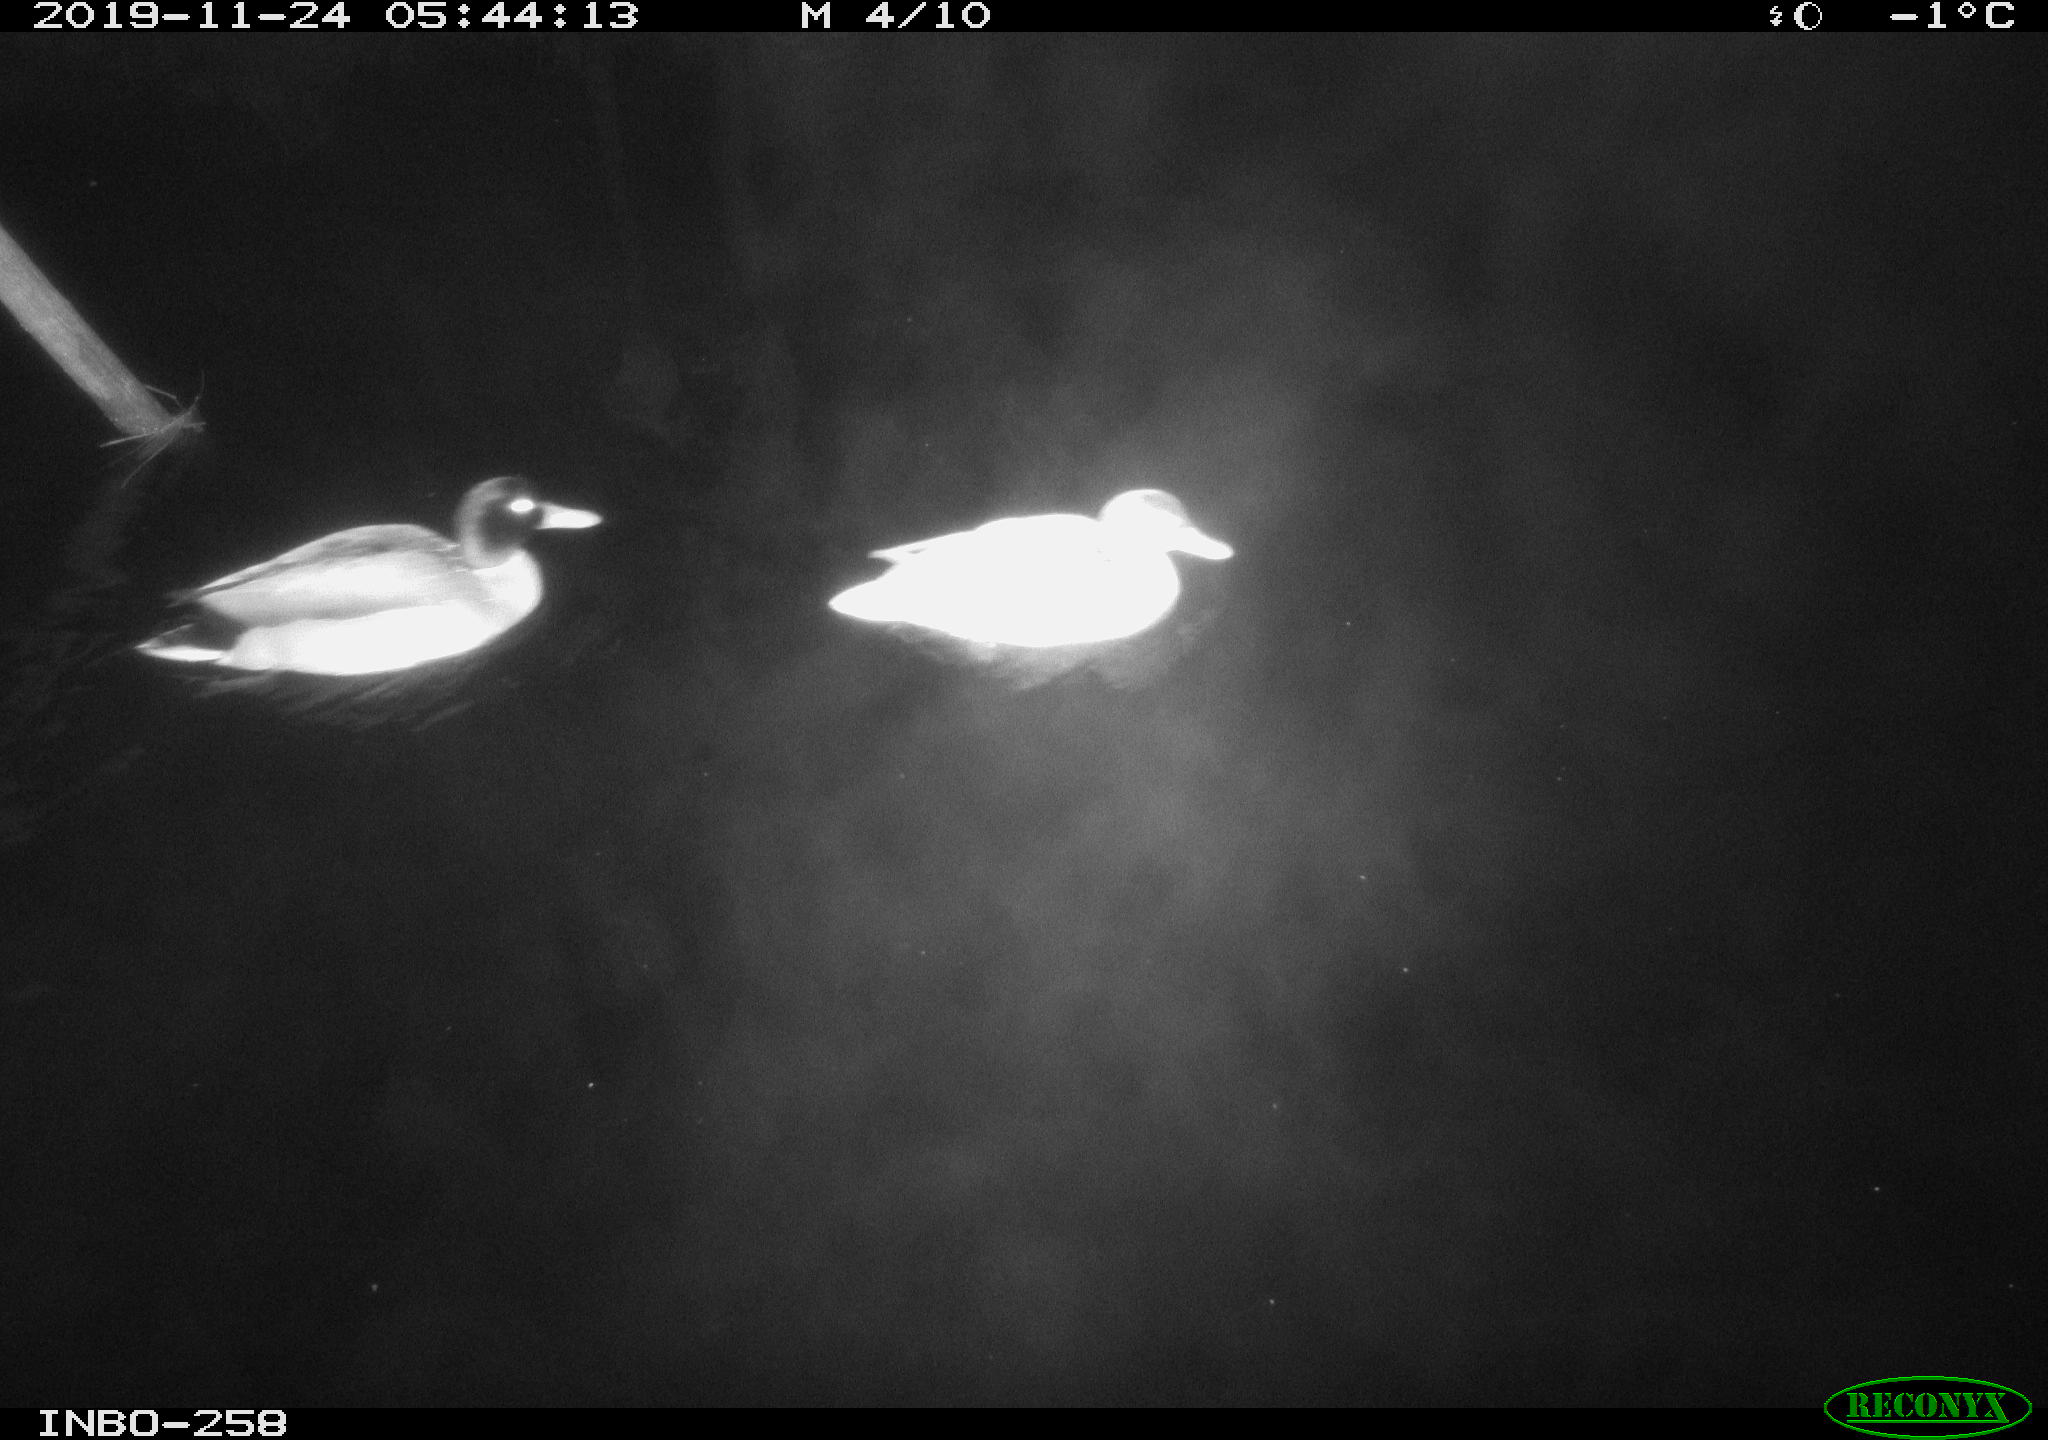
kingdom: Animalia
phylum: Chordata
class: Aves
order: Anseriformes
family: Anatidae
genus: Anas
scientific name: Anas platyrhynchos
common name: Mallard
